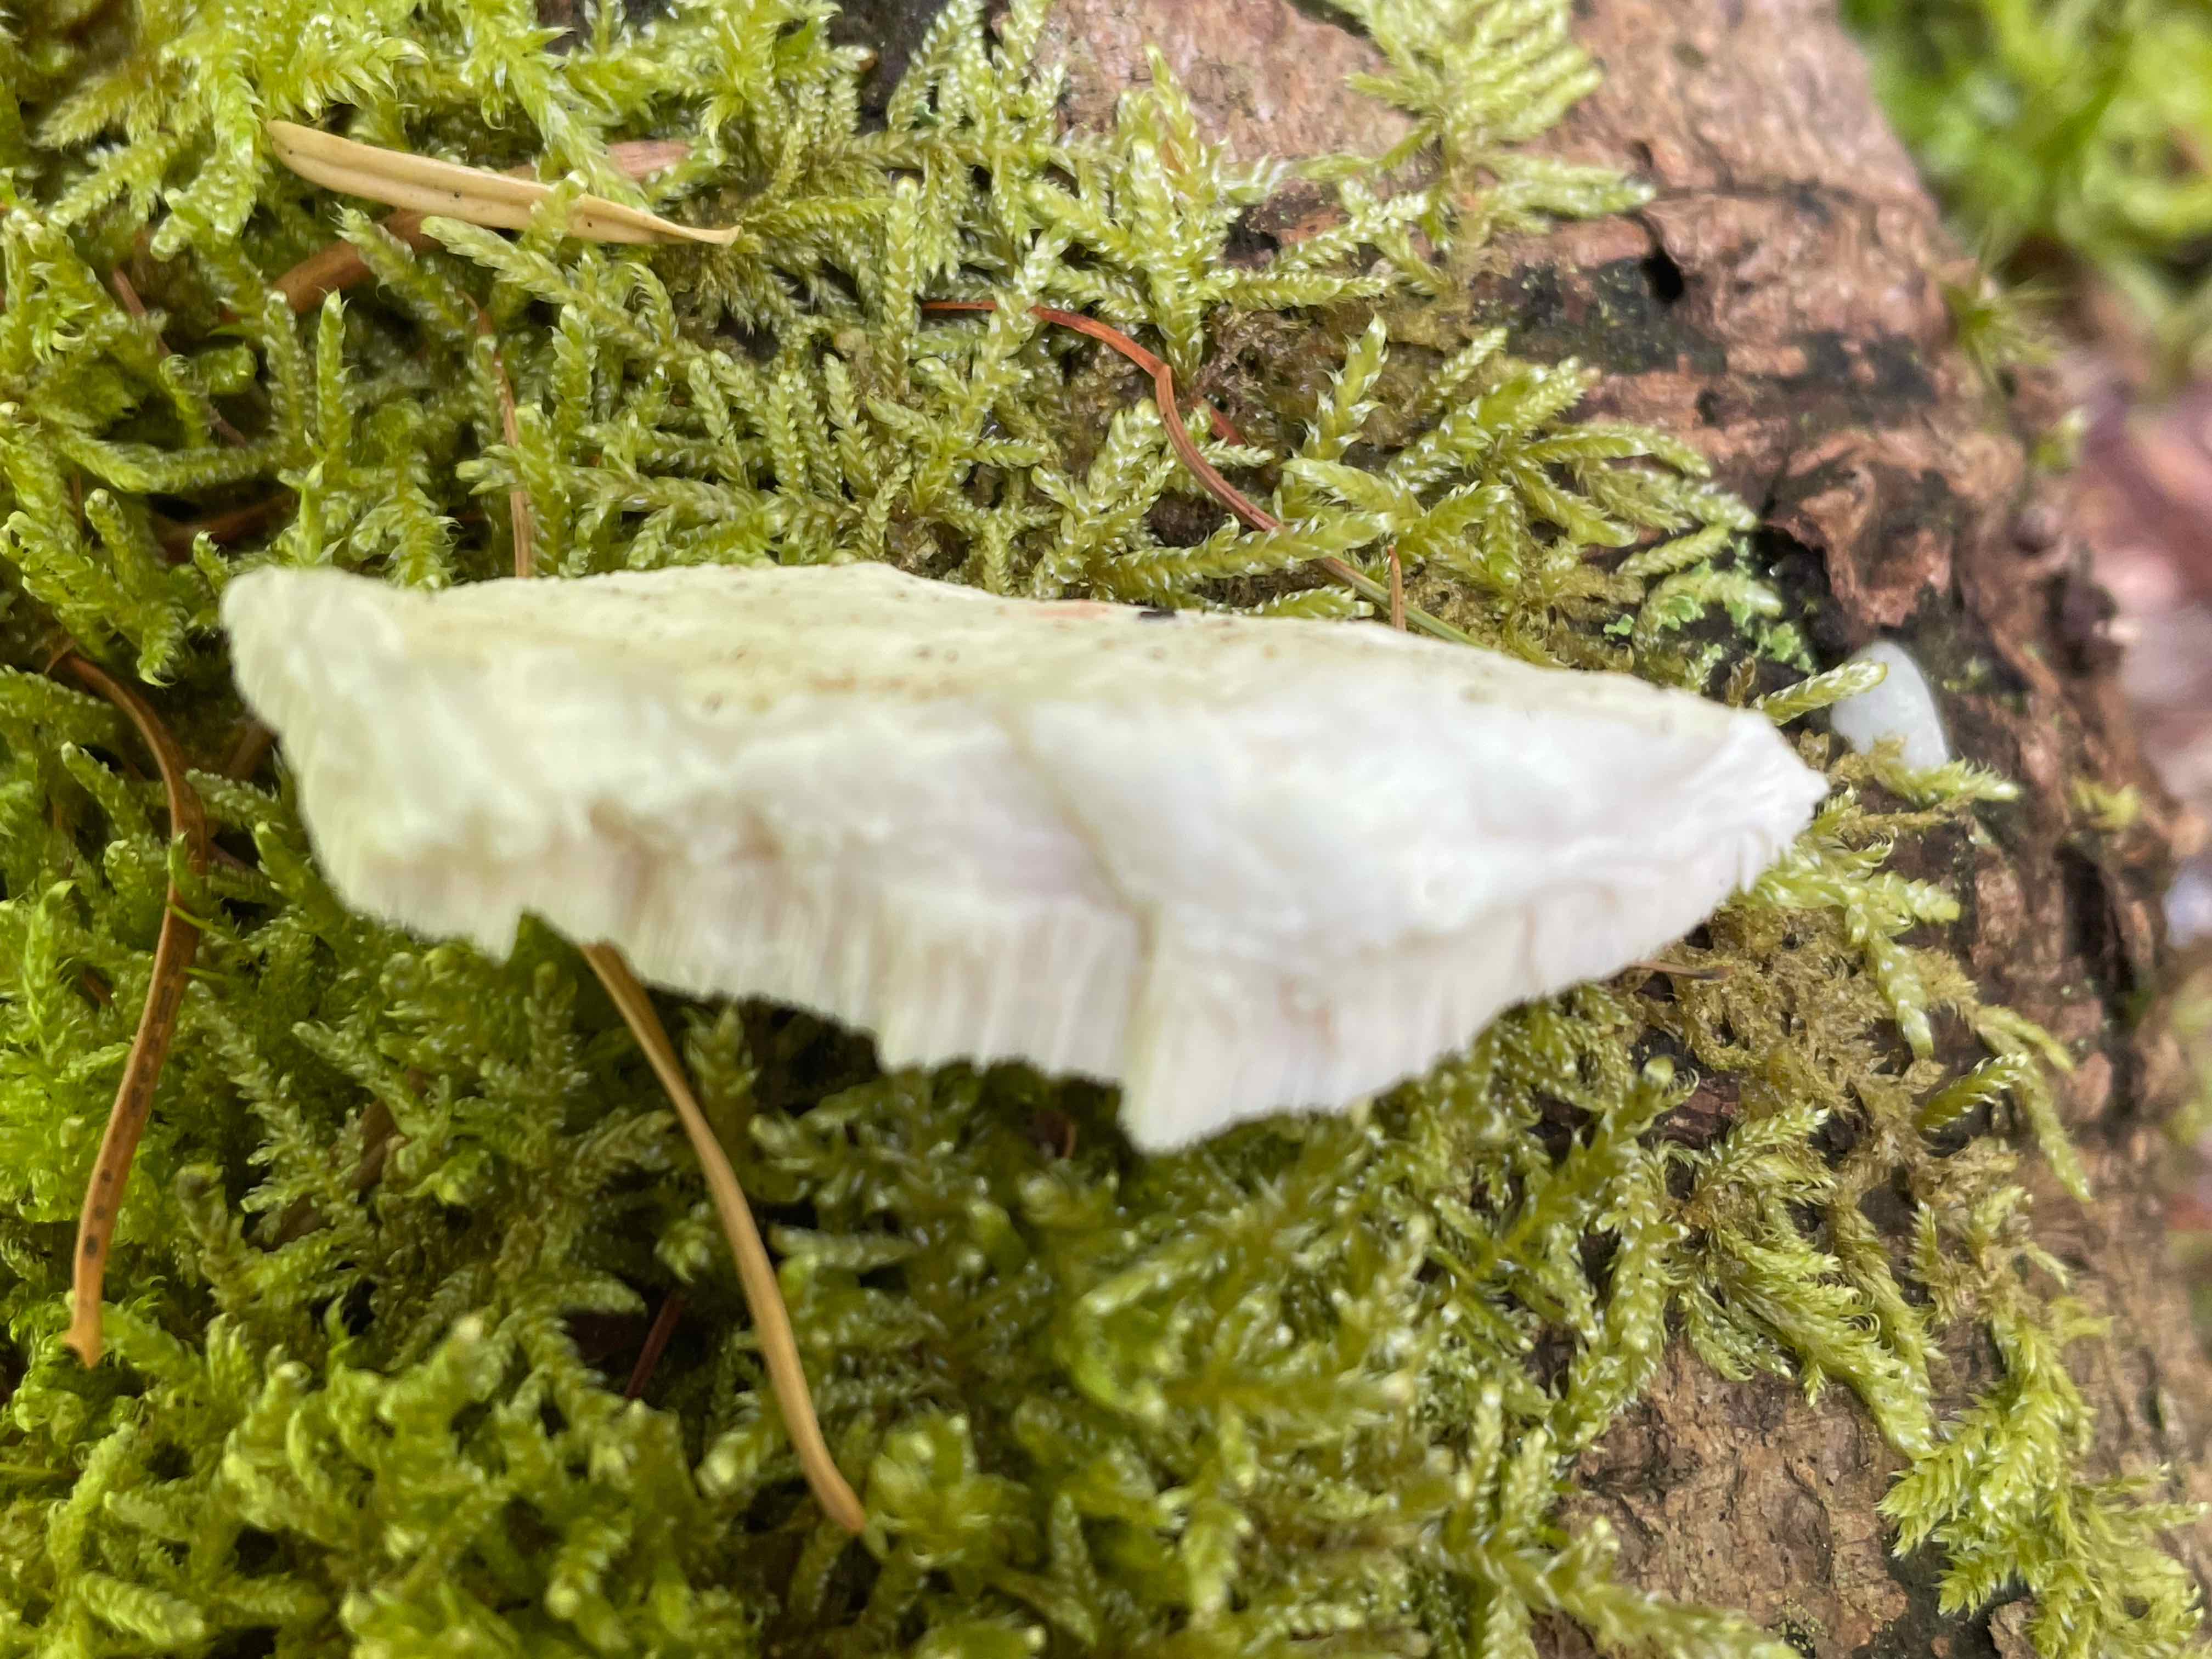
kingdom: Fungi
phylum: Basidiomycota
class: Agaricomycetes
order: Polyporales
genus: Amaropostia
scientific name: Amaropostia stiptica
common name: bitter kødporesvamp
